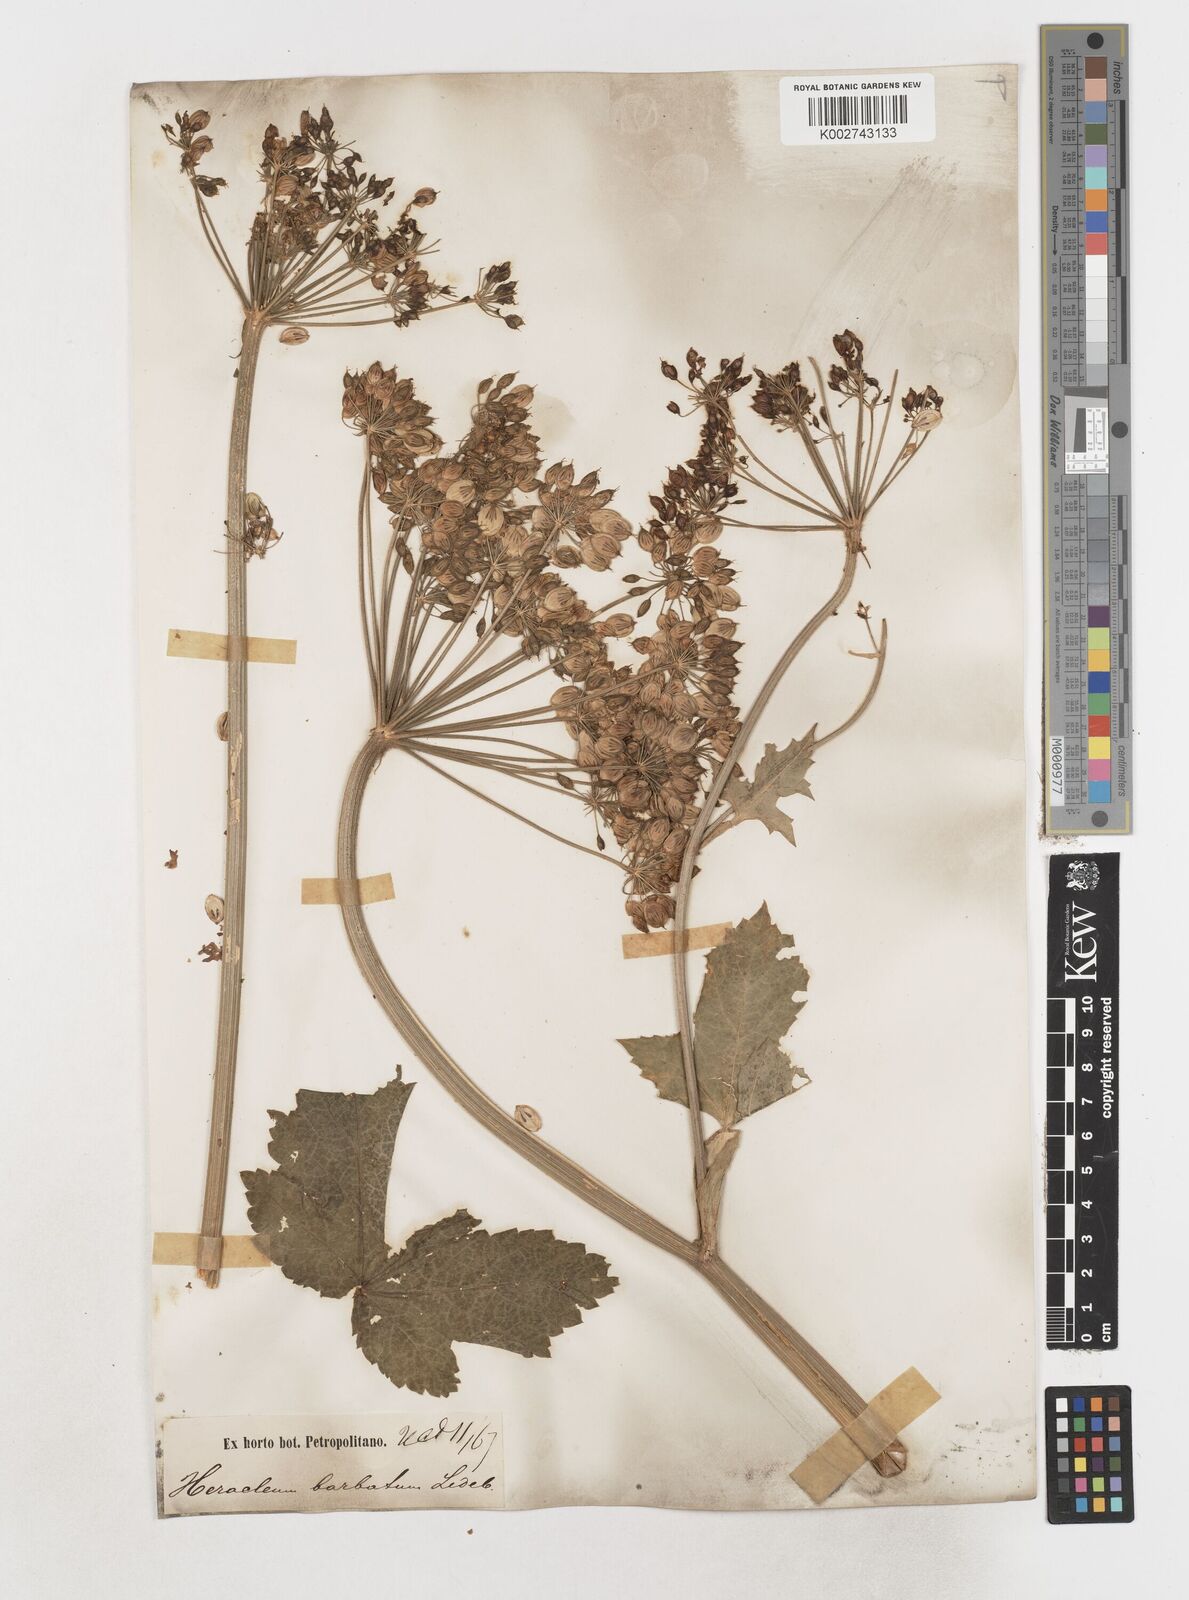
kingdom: Plantae
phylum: Tracheophyta
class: Magnoliopsida
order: Apiales
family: Apiaceae
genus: Heracleum
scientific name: Heracleum dissectum
